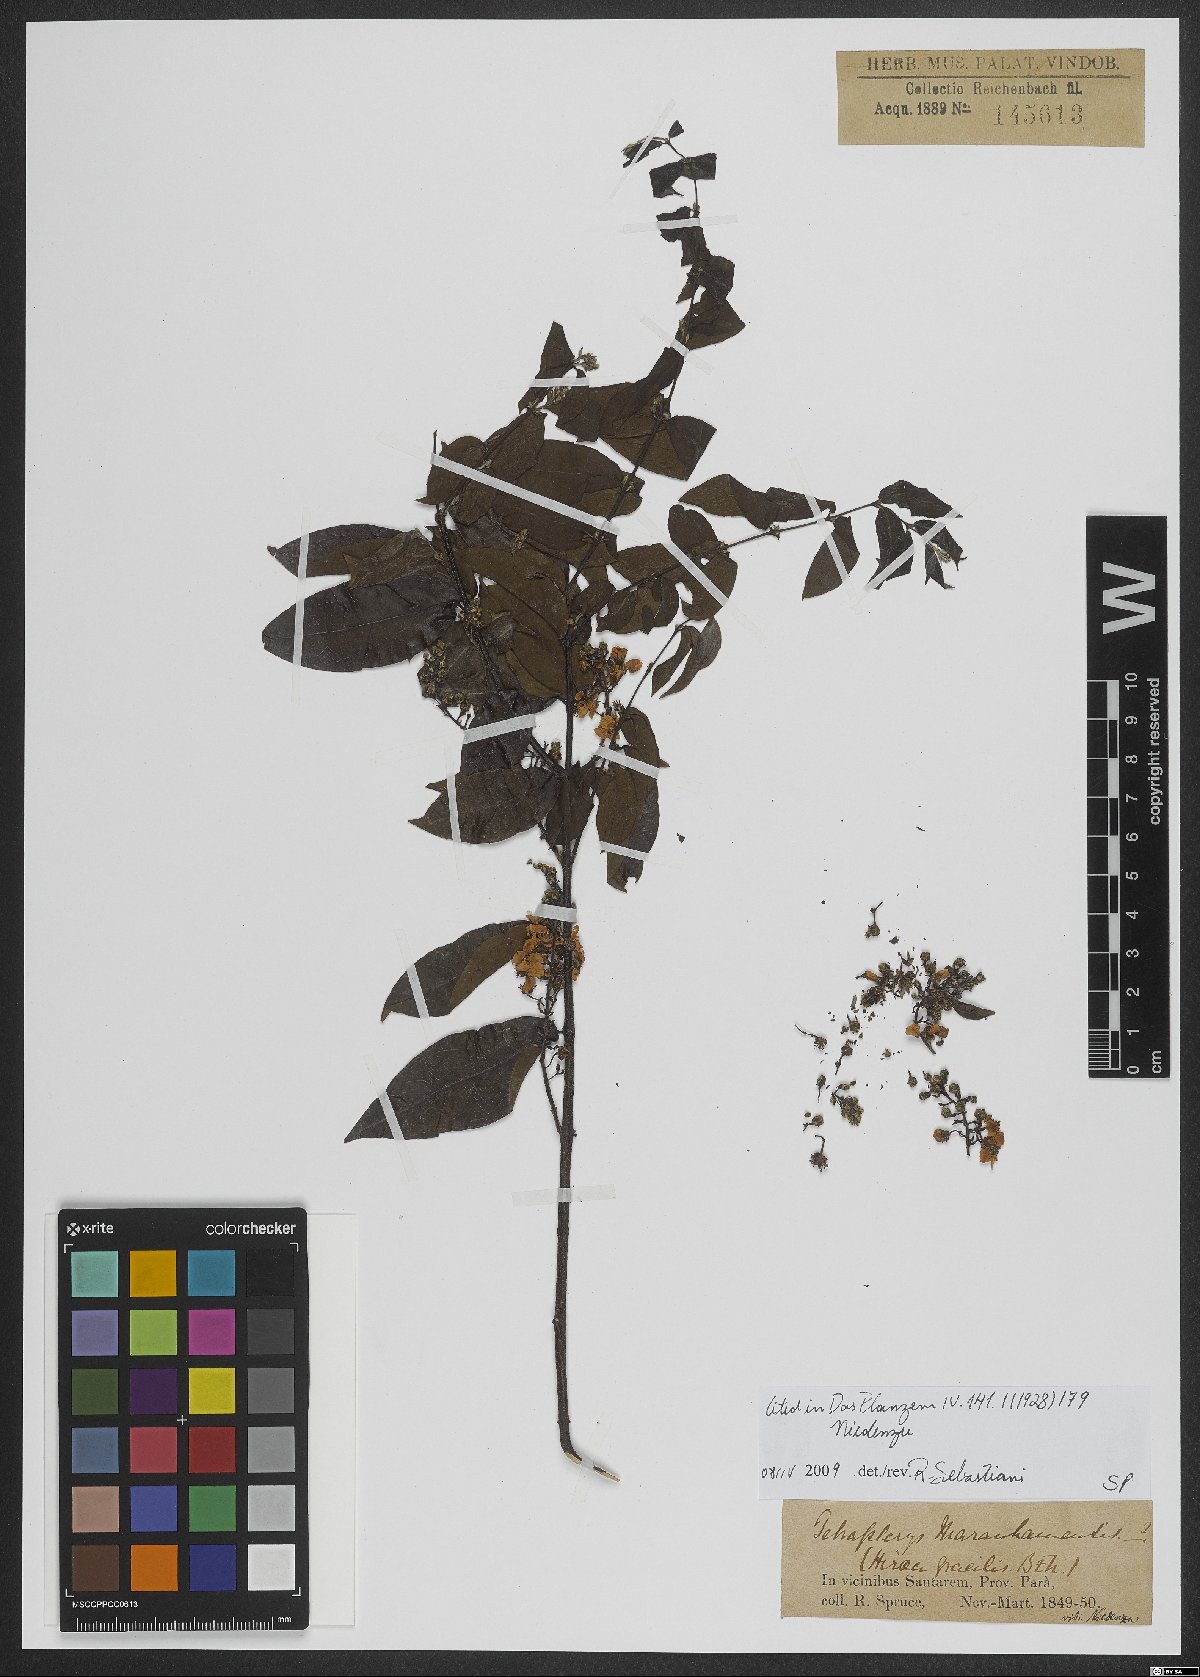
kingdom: Plantae
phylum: Tracheophyta
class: Magnoliopsida
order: Malpighiales
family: Malpighiaceae
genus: Glicophyllum
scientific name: Glicophyllum maranhamense
